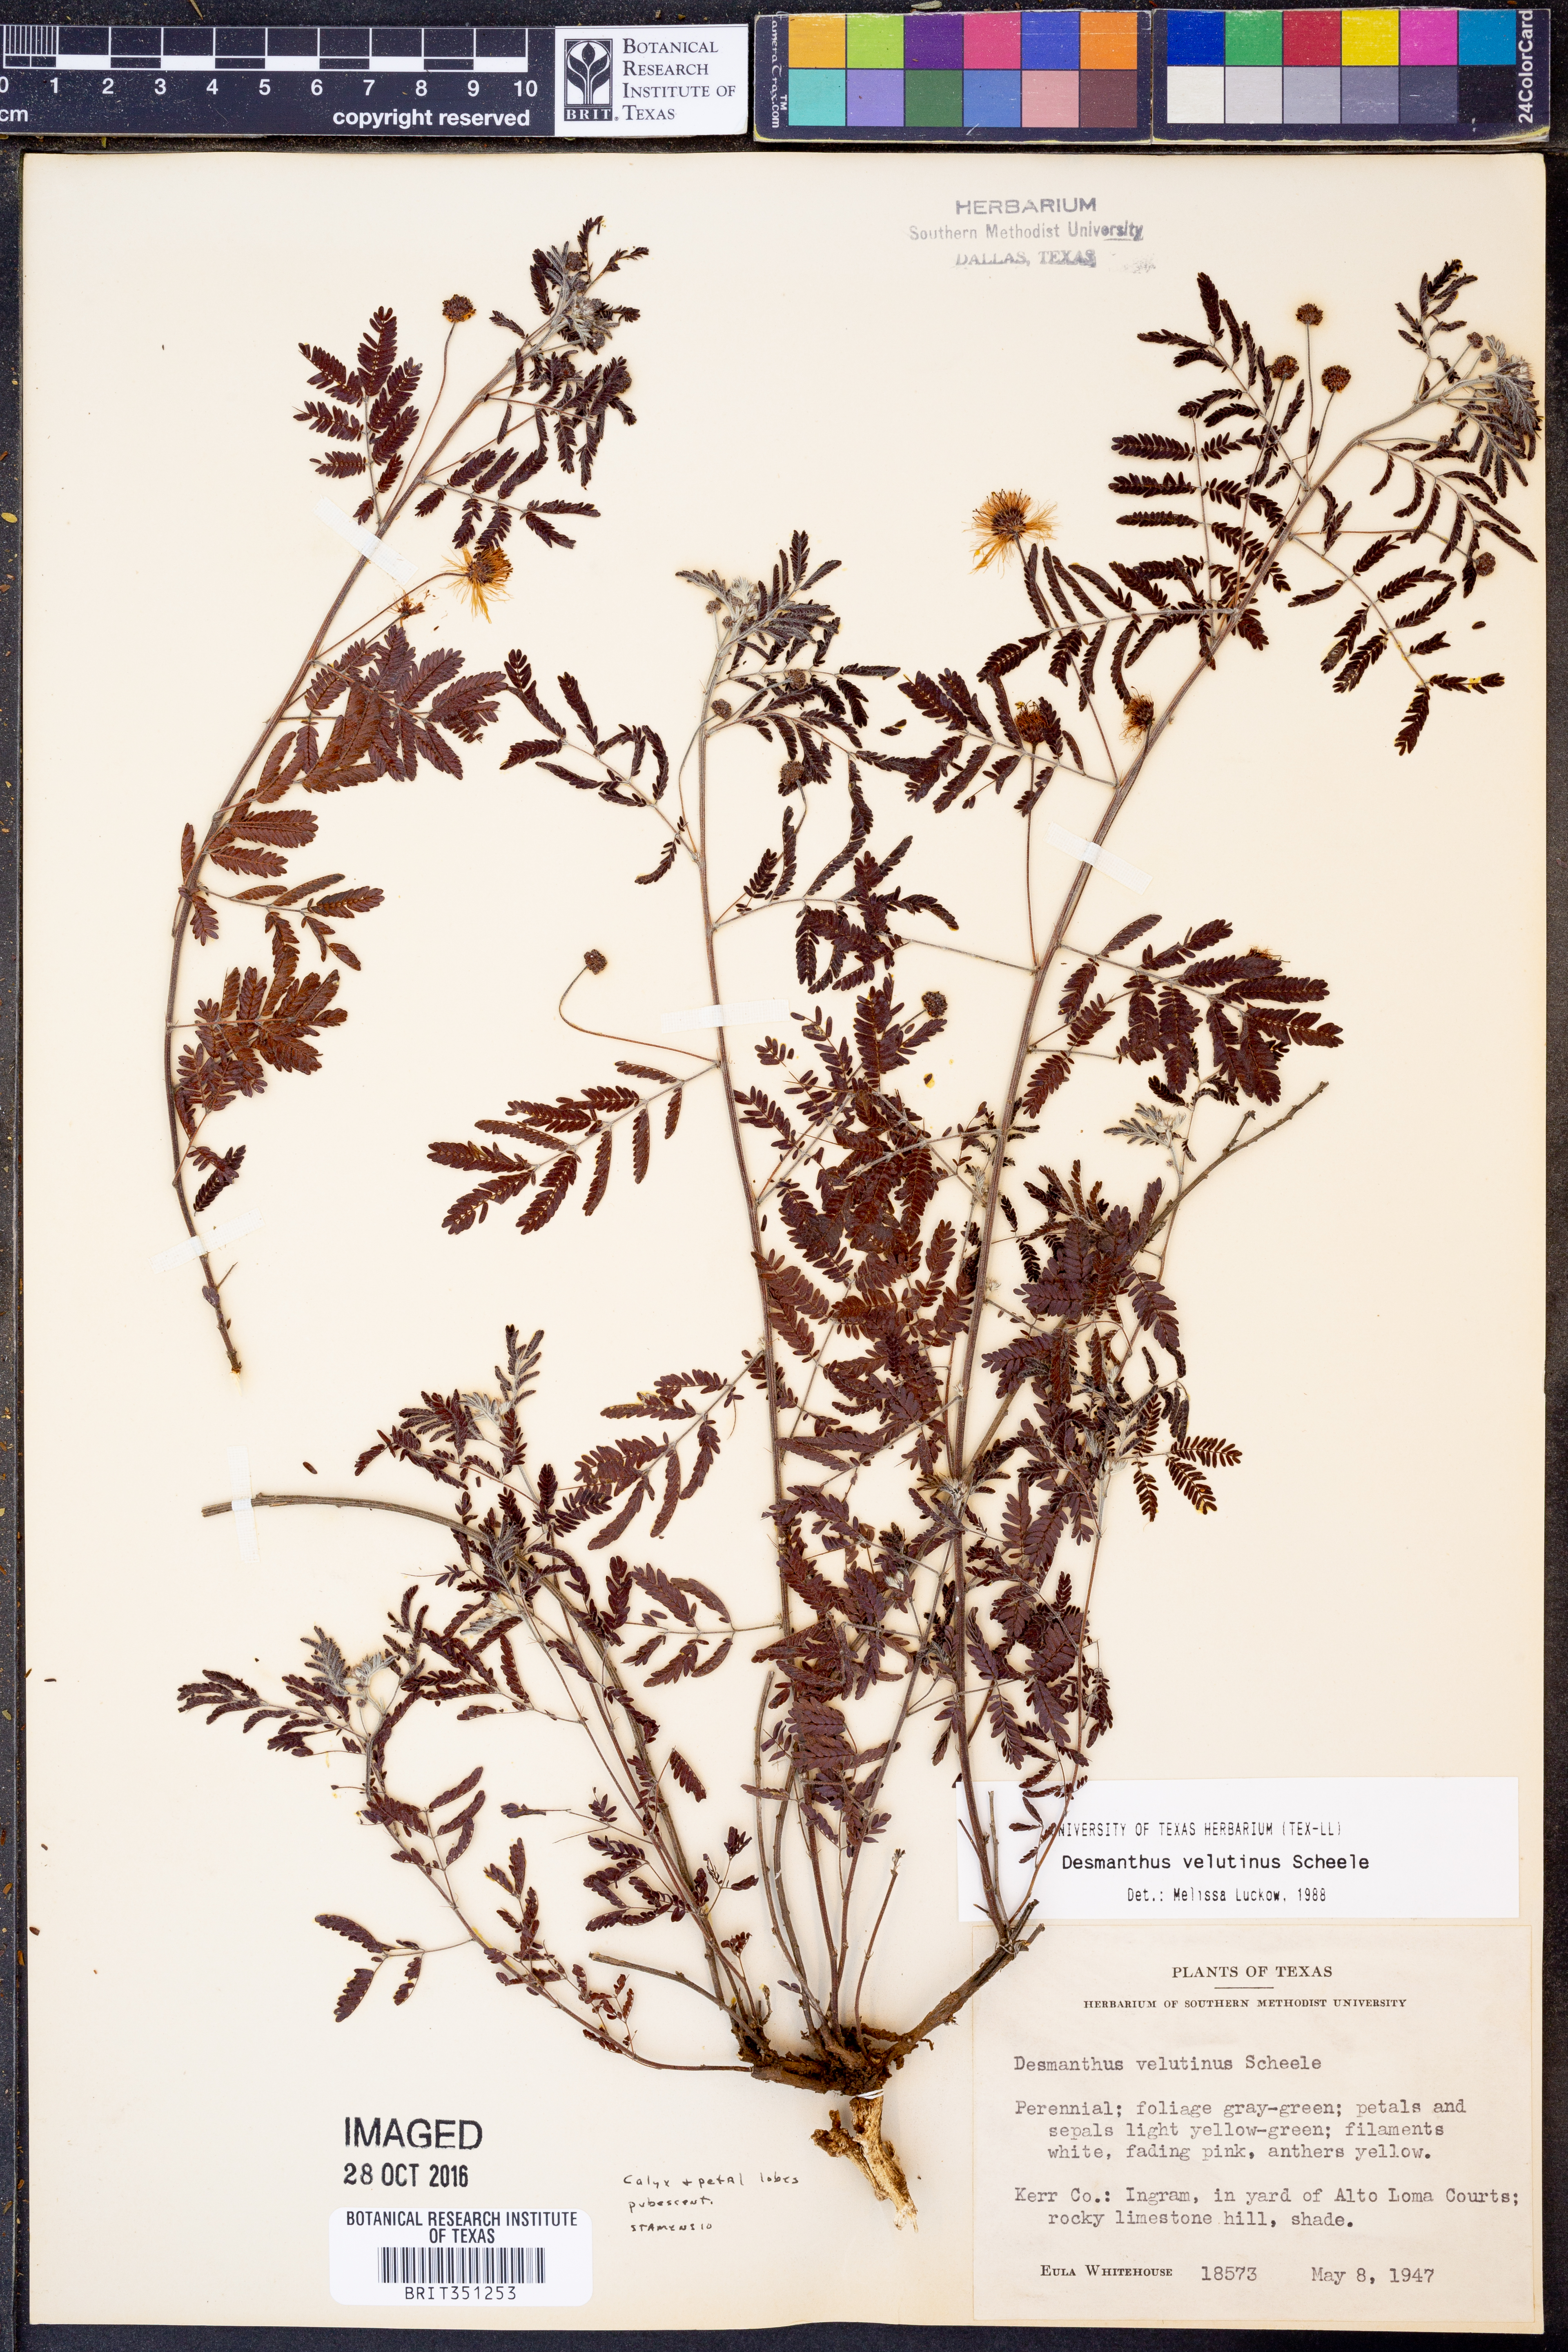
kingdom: Plantae
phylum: Tracheophyta
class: Magnoliopsida
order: Fabales
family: Fabaceae
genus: Desmanthus
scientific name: Desmanthus velutinus
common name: Velvet bundle-flower
